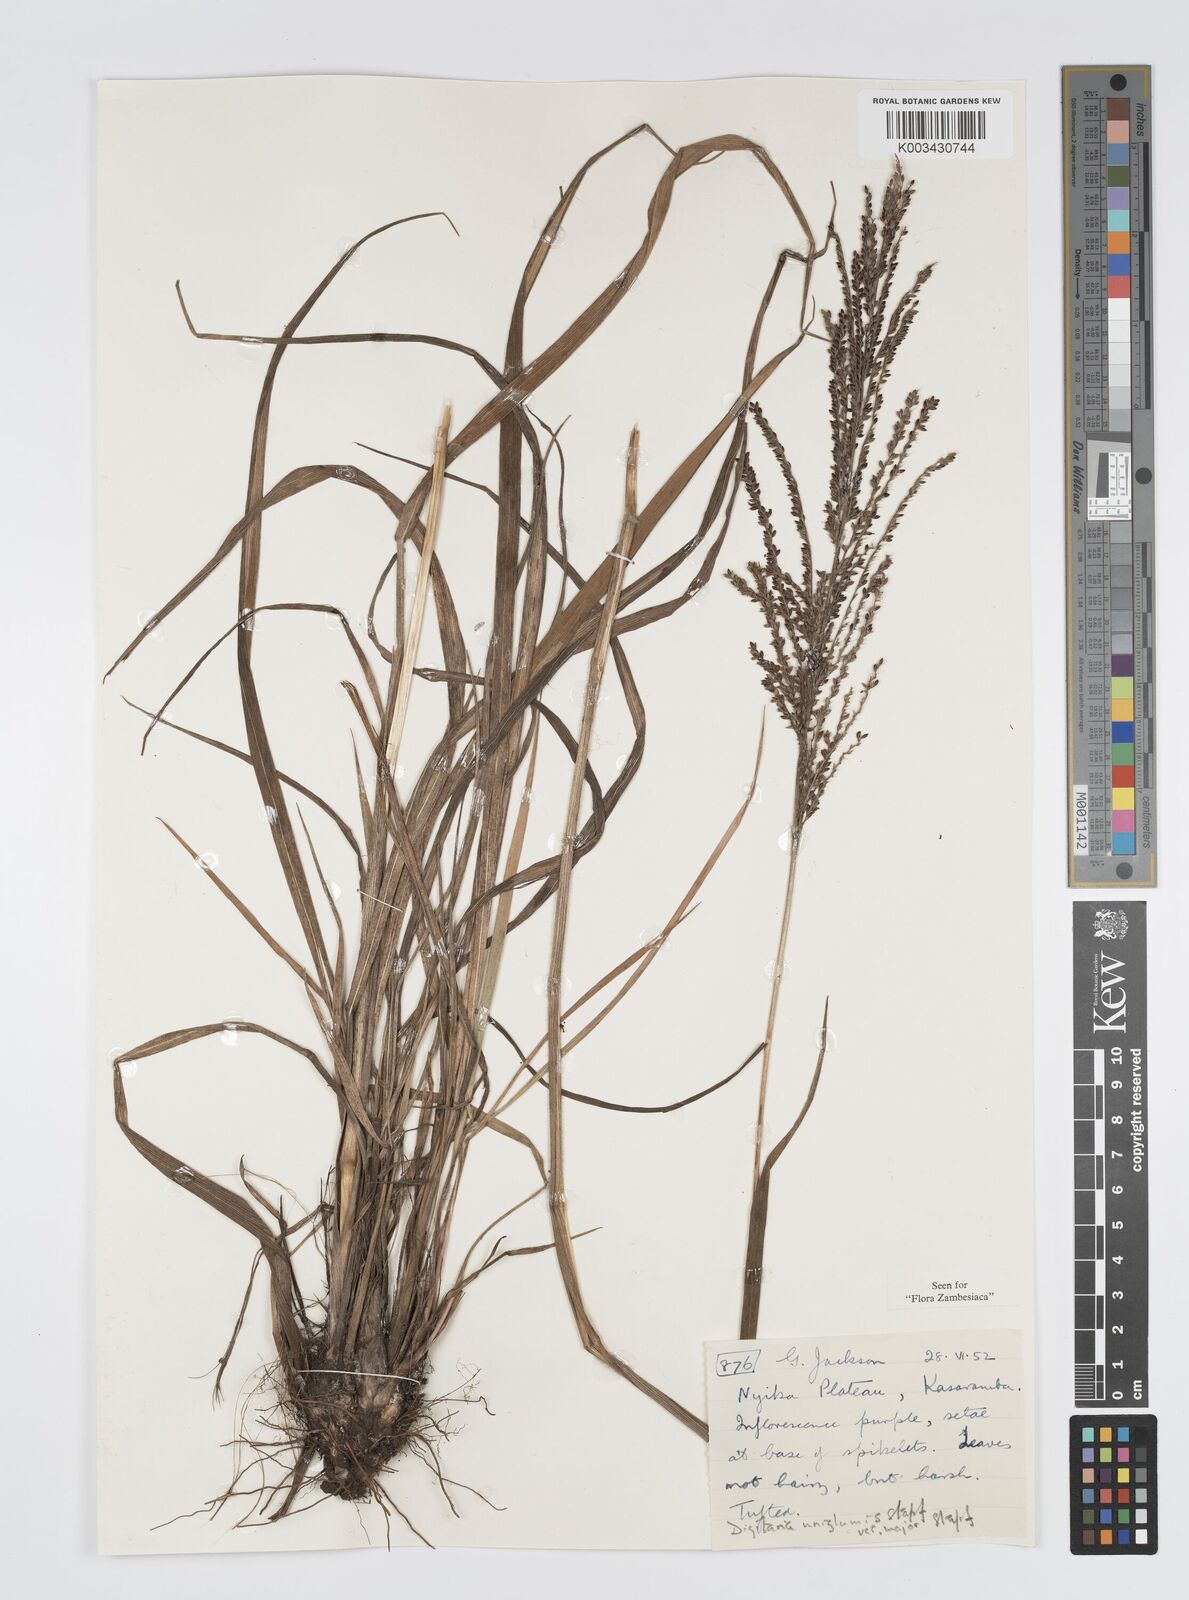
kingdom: Plantae
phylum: Tracheophyta
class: Liliopsida
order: Poales
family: Poaceae
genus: Digitaria
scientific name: Digitaria diagonalis
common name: Brown-seed finger grass
